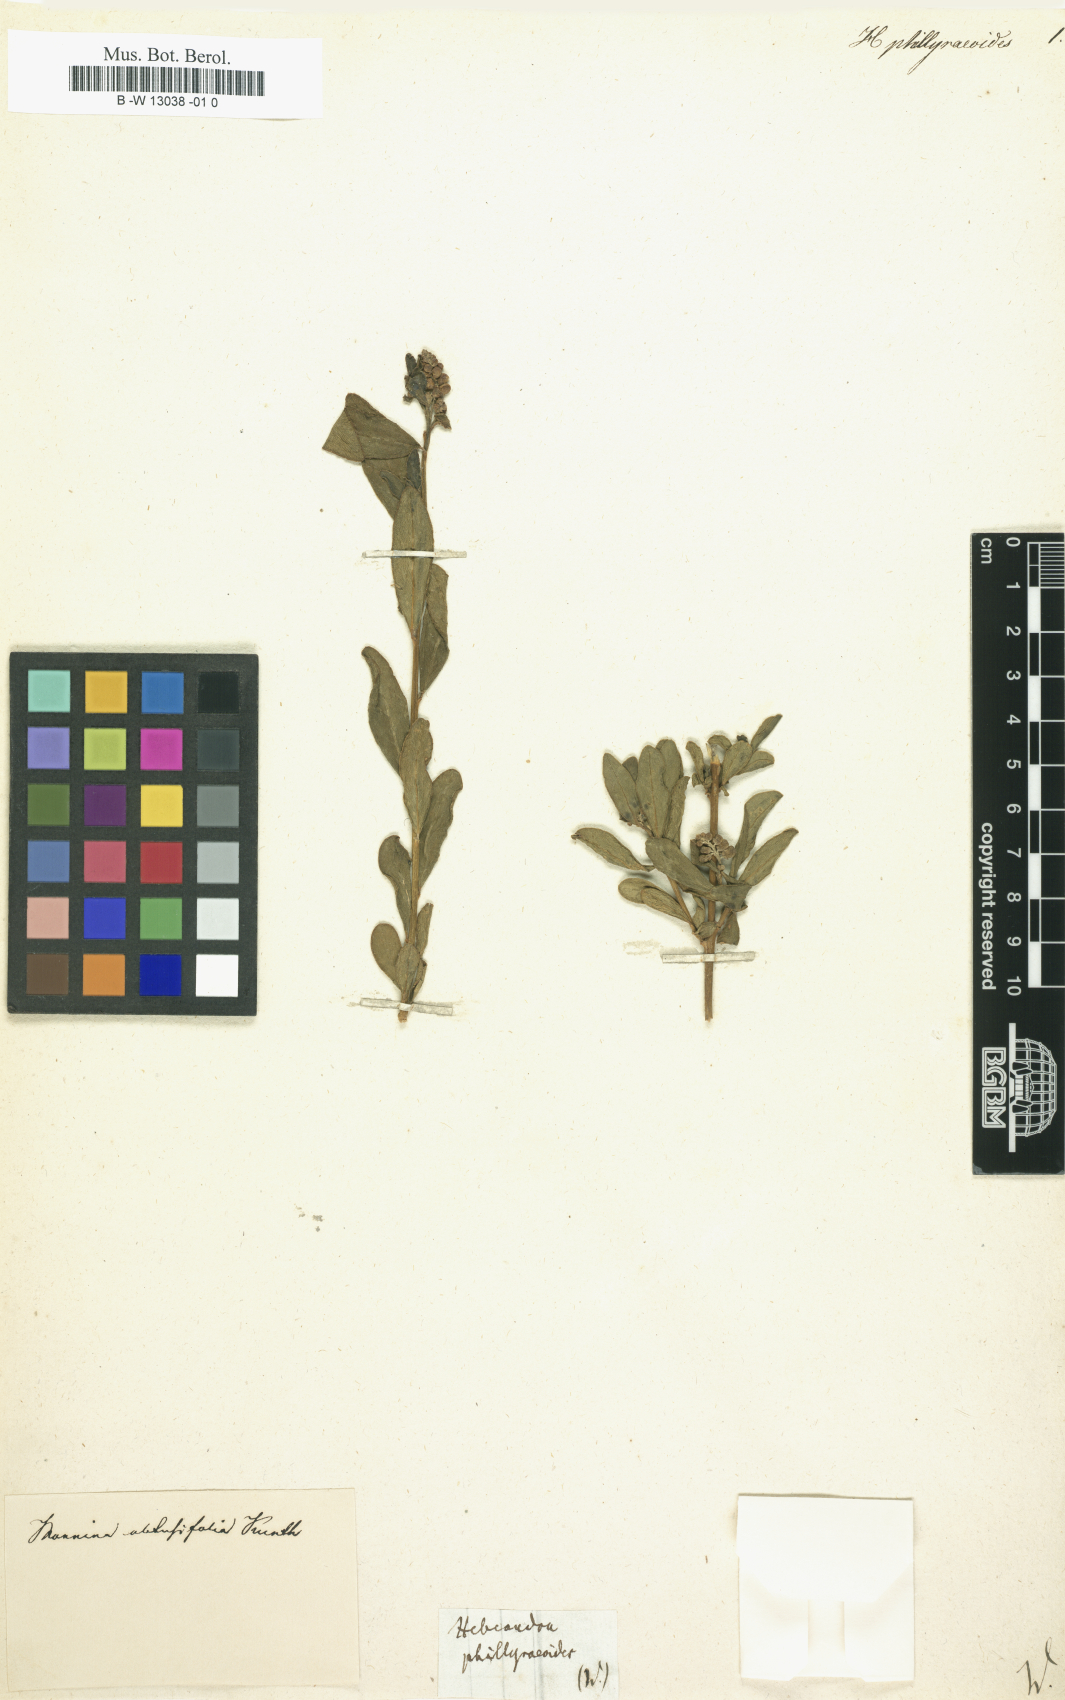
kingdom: Plantae
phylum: Tracheophyta
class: Magnoliopsida
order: Fabales
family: Polygalaceae
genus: Monnina
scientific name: Monnina salicifolia
